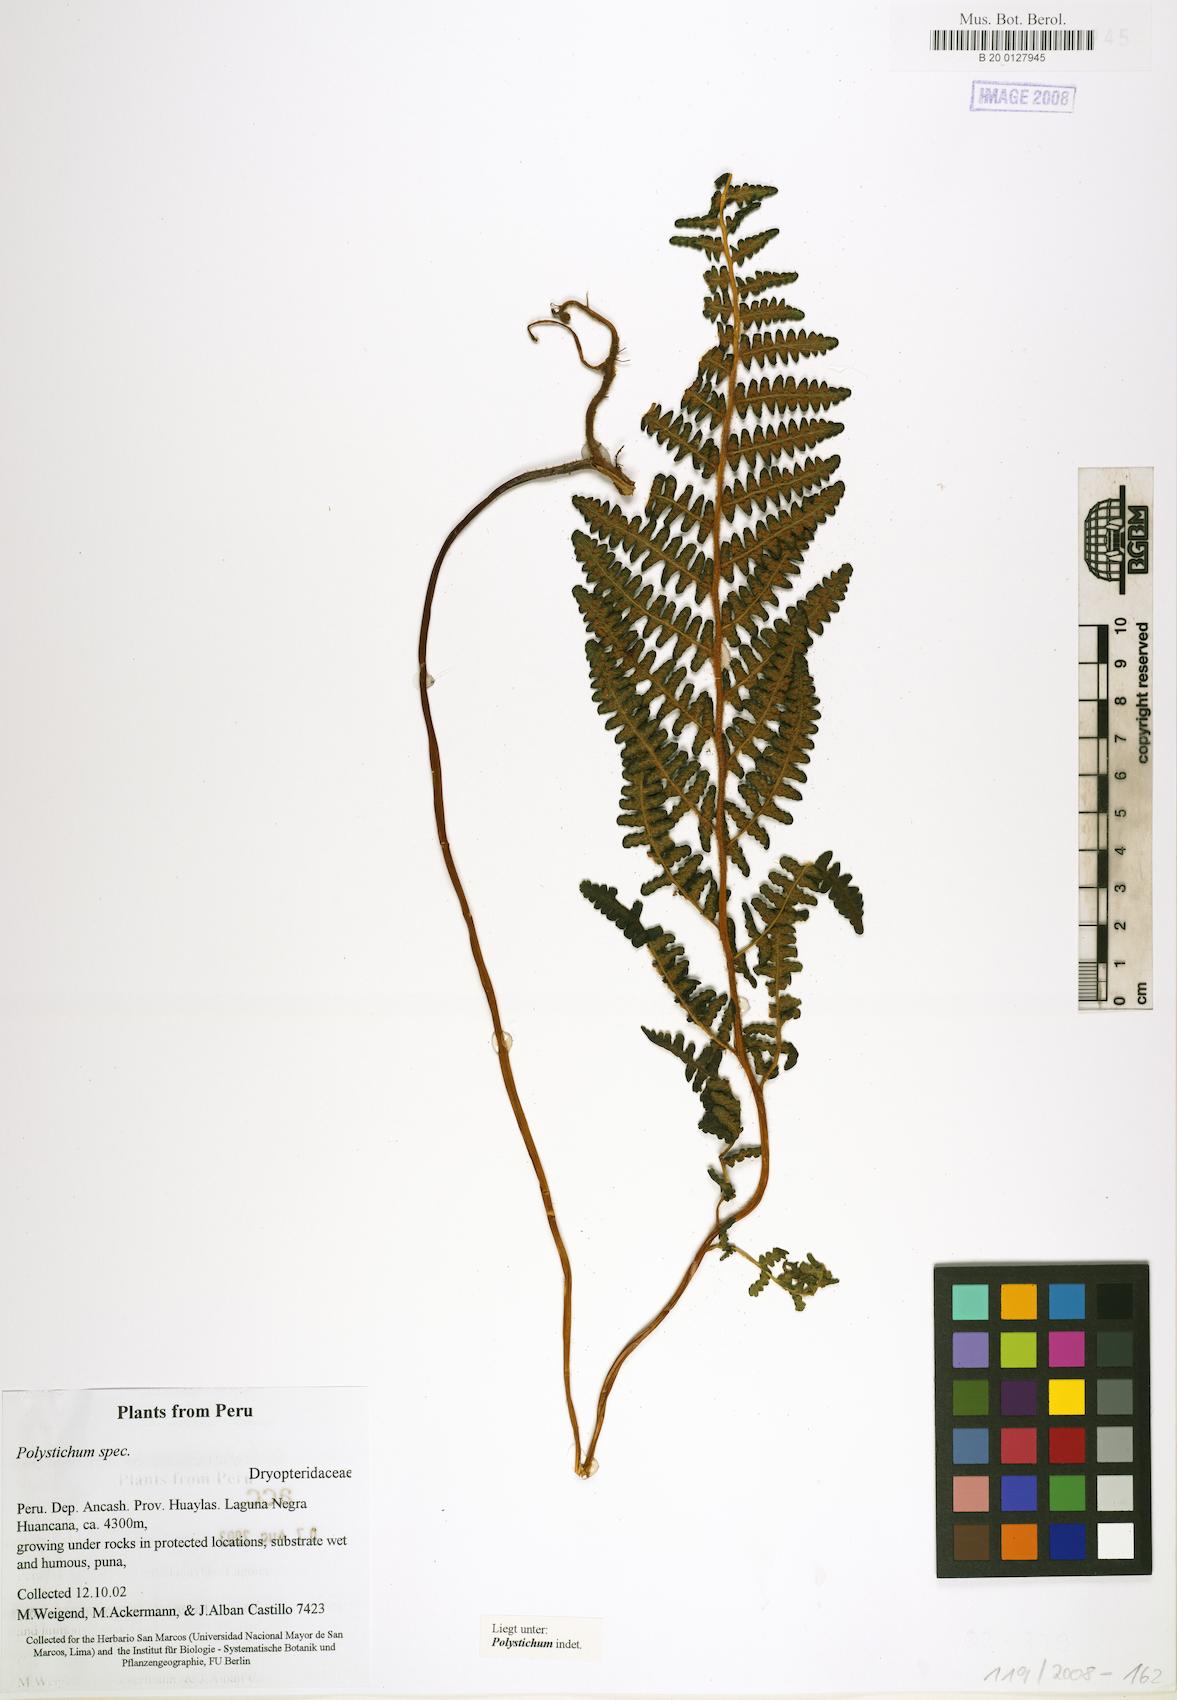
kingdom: Plantae
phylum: Tracheophyta
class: Polypodiopsida
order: Polypodiales
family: Dryopteridaceae
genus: Polystichum
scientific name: Polystichum
